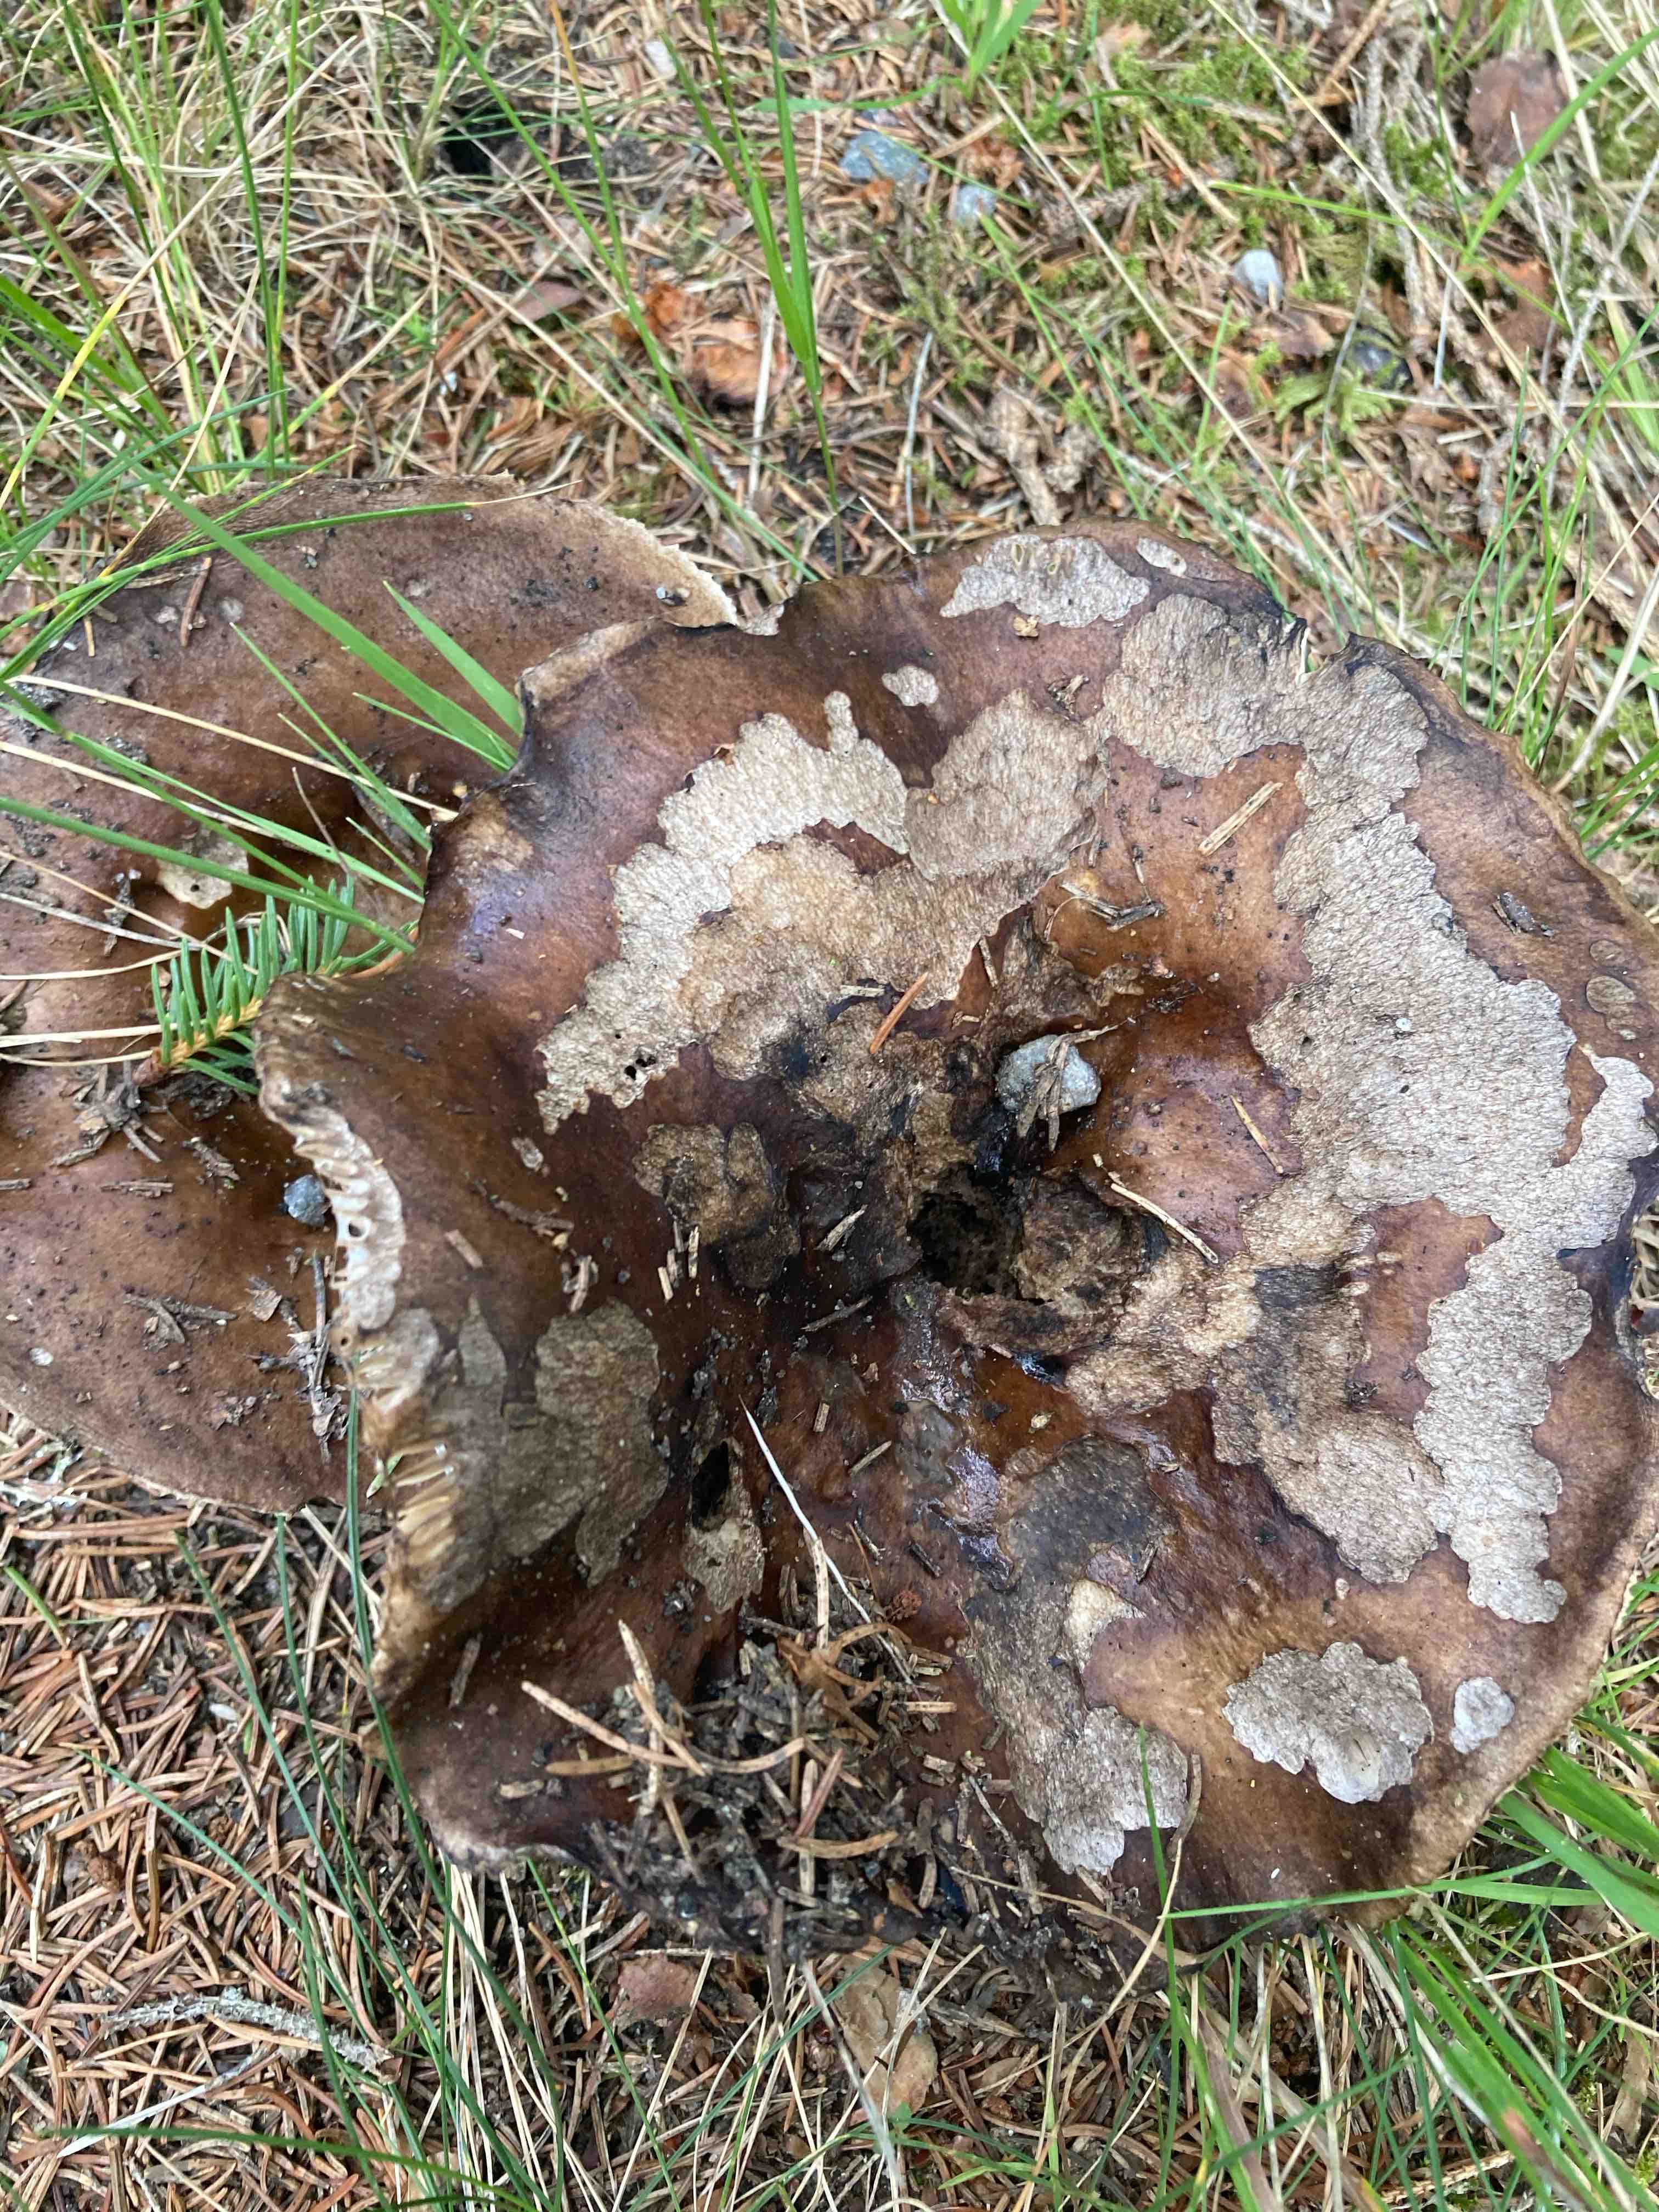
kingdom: Fungi
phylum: Basidiomycota
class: Agaricomycetes
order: Russulales
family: Russulaceae
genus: Russula
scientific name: Russula adusta
